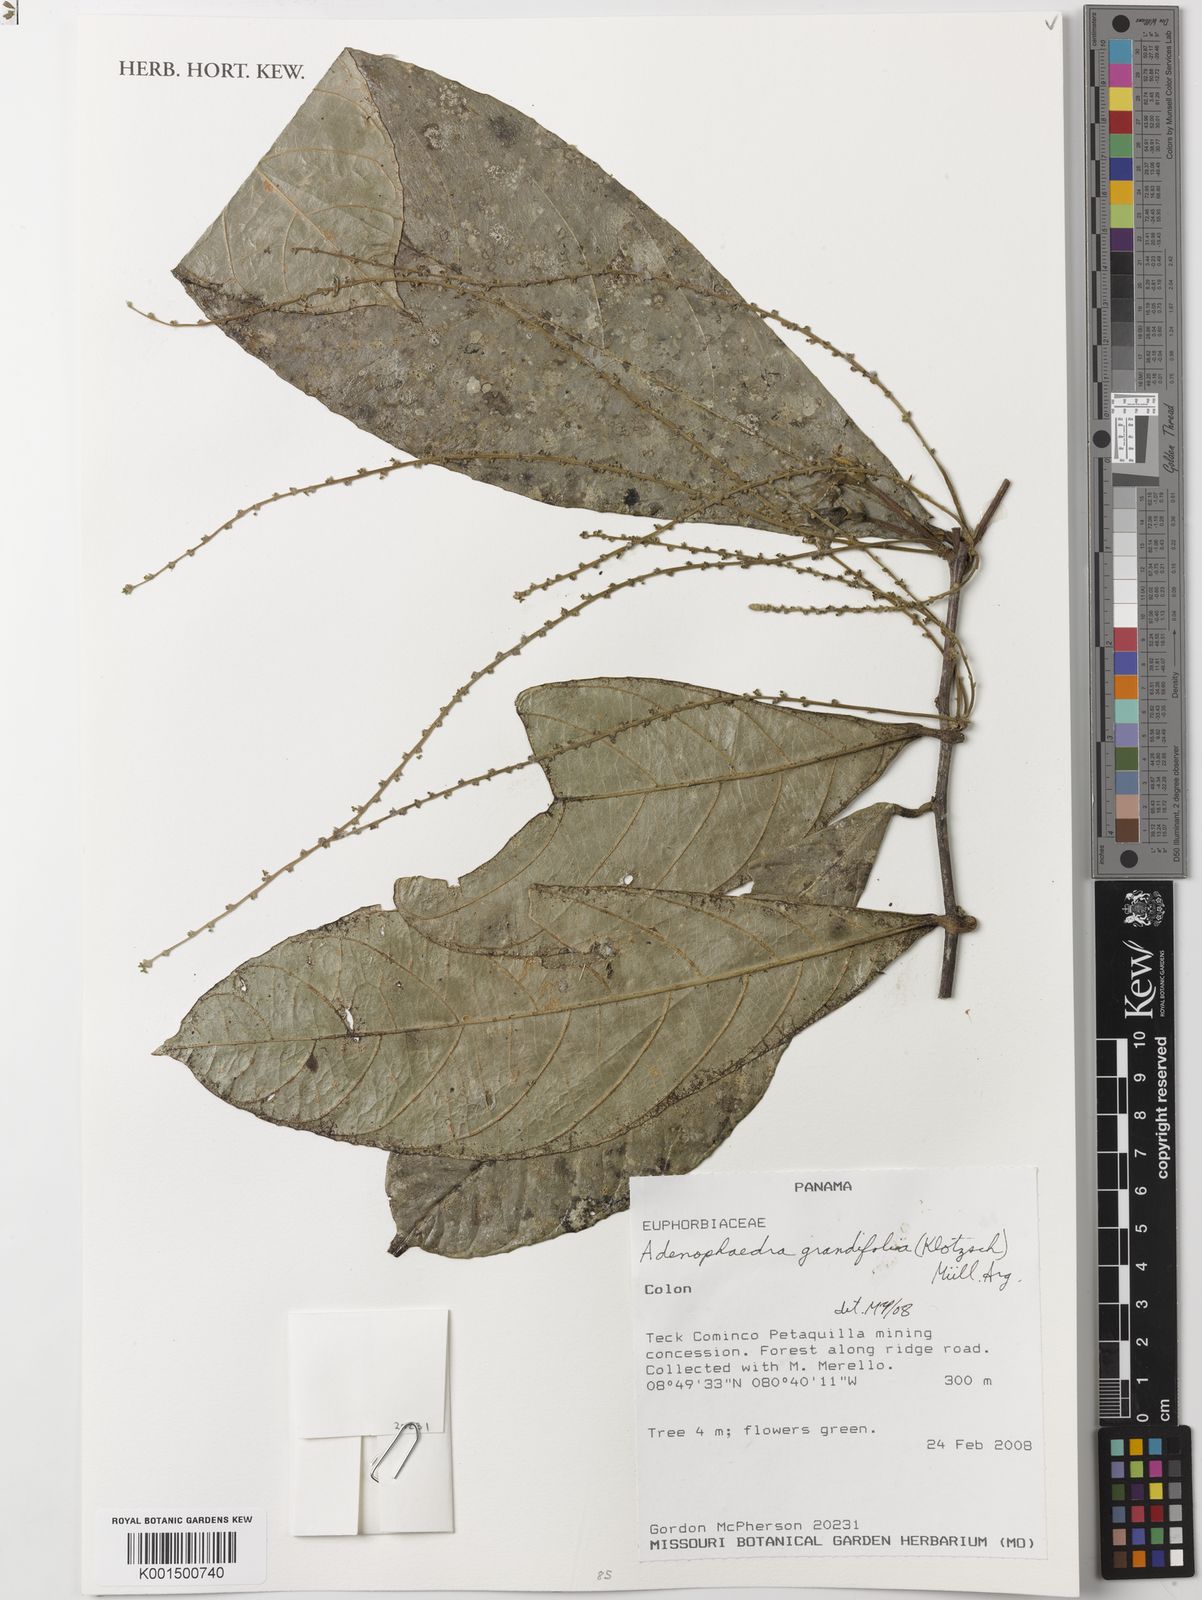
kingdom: Plantae
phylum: Tracheophyta
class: Magnoliopsida
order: Malpighiales
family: Euphorbiaceae
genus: Adenophaedra
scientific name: Adenophaedra grandifolia
